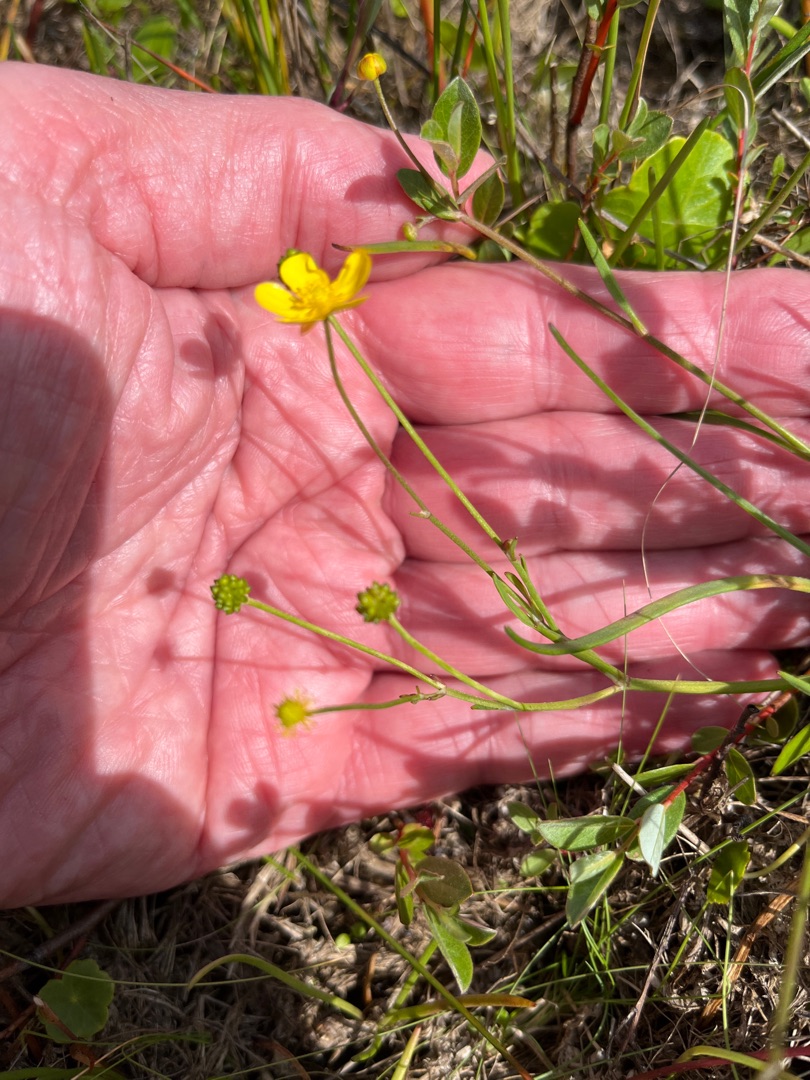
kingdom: Plantae
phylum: Tracheophyta
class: Magnoliopsida
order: Ranunculales
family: Ranunculaceae
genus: Ranunculus
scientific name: Ranunculus flammula
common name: Kær-ranunkel
